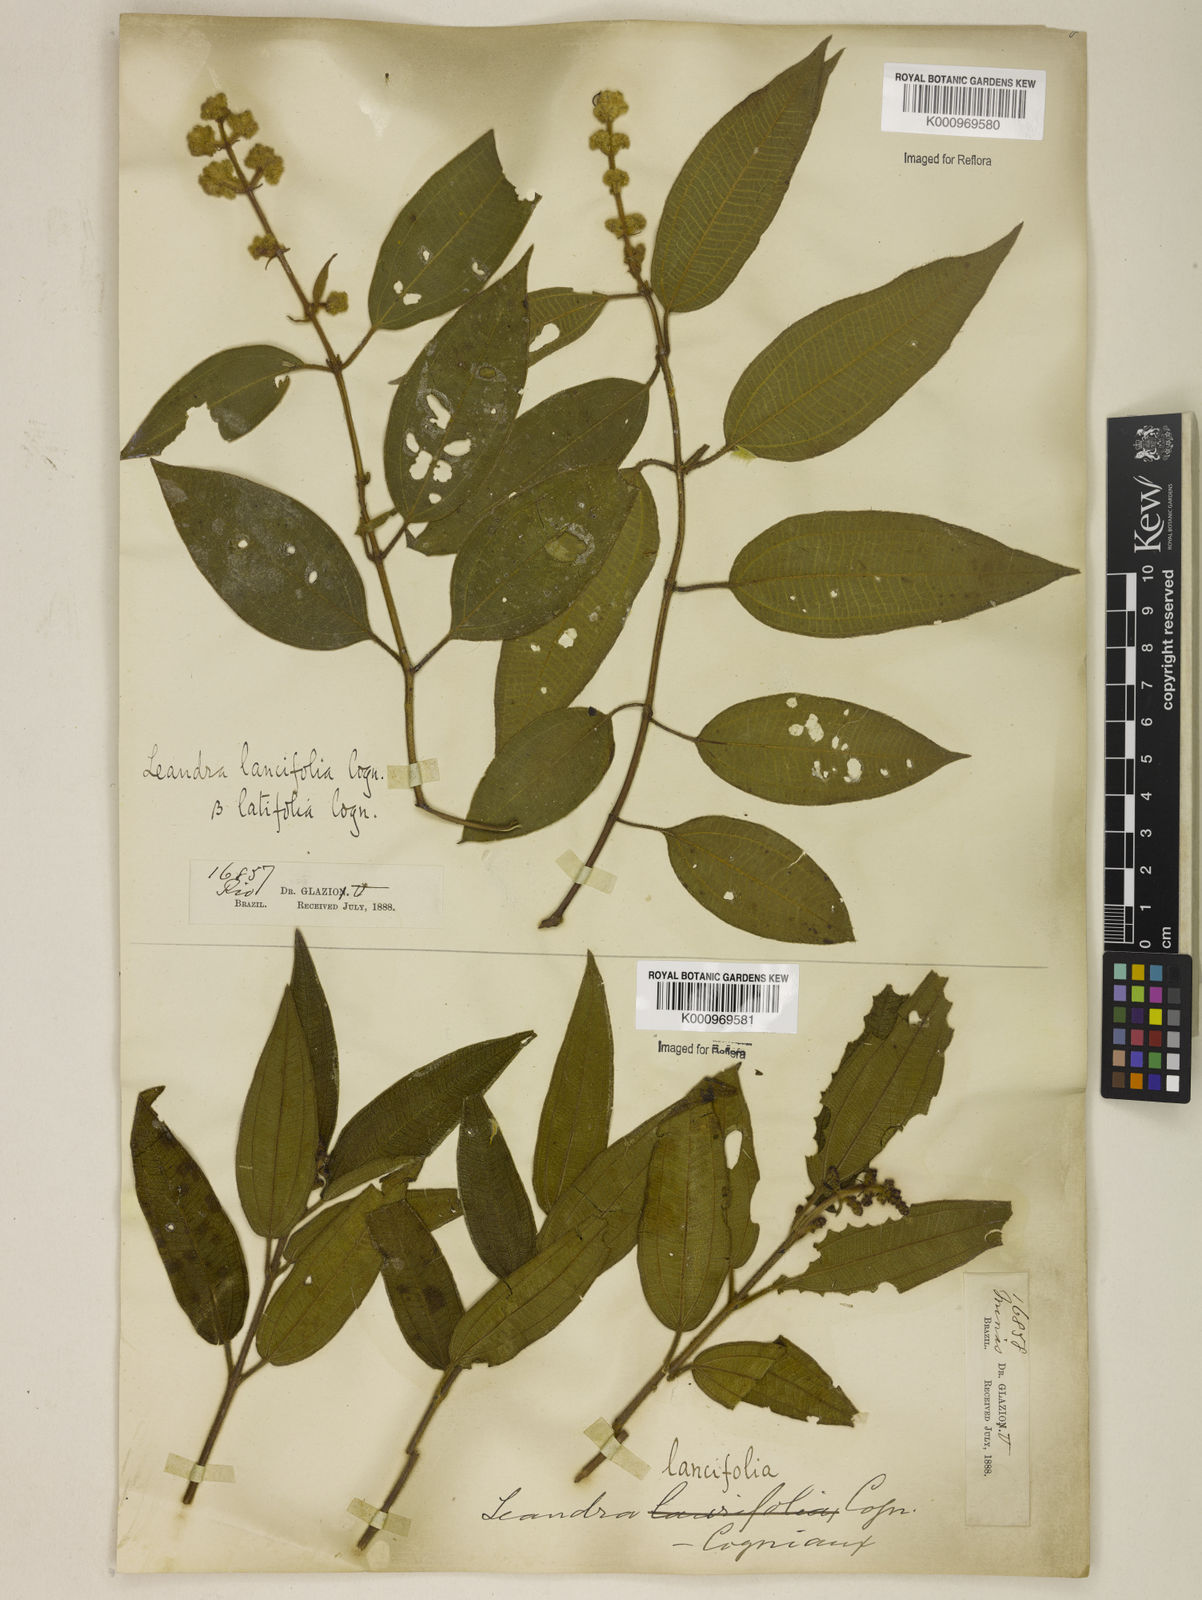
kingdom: Plantae
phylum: Tracheophyta
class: Magnoliopsida
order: Myrtales
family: Melastomataceae
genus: Miconia
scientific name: Miconia
